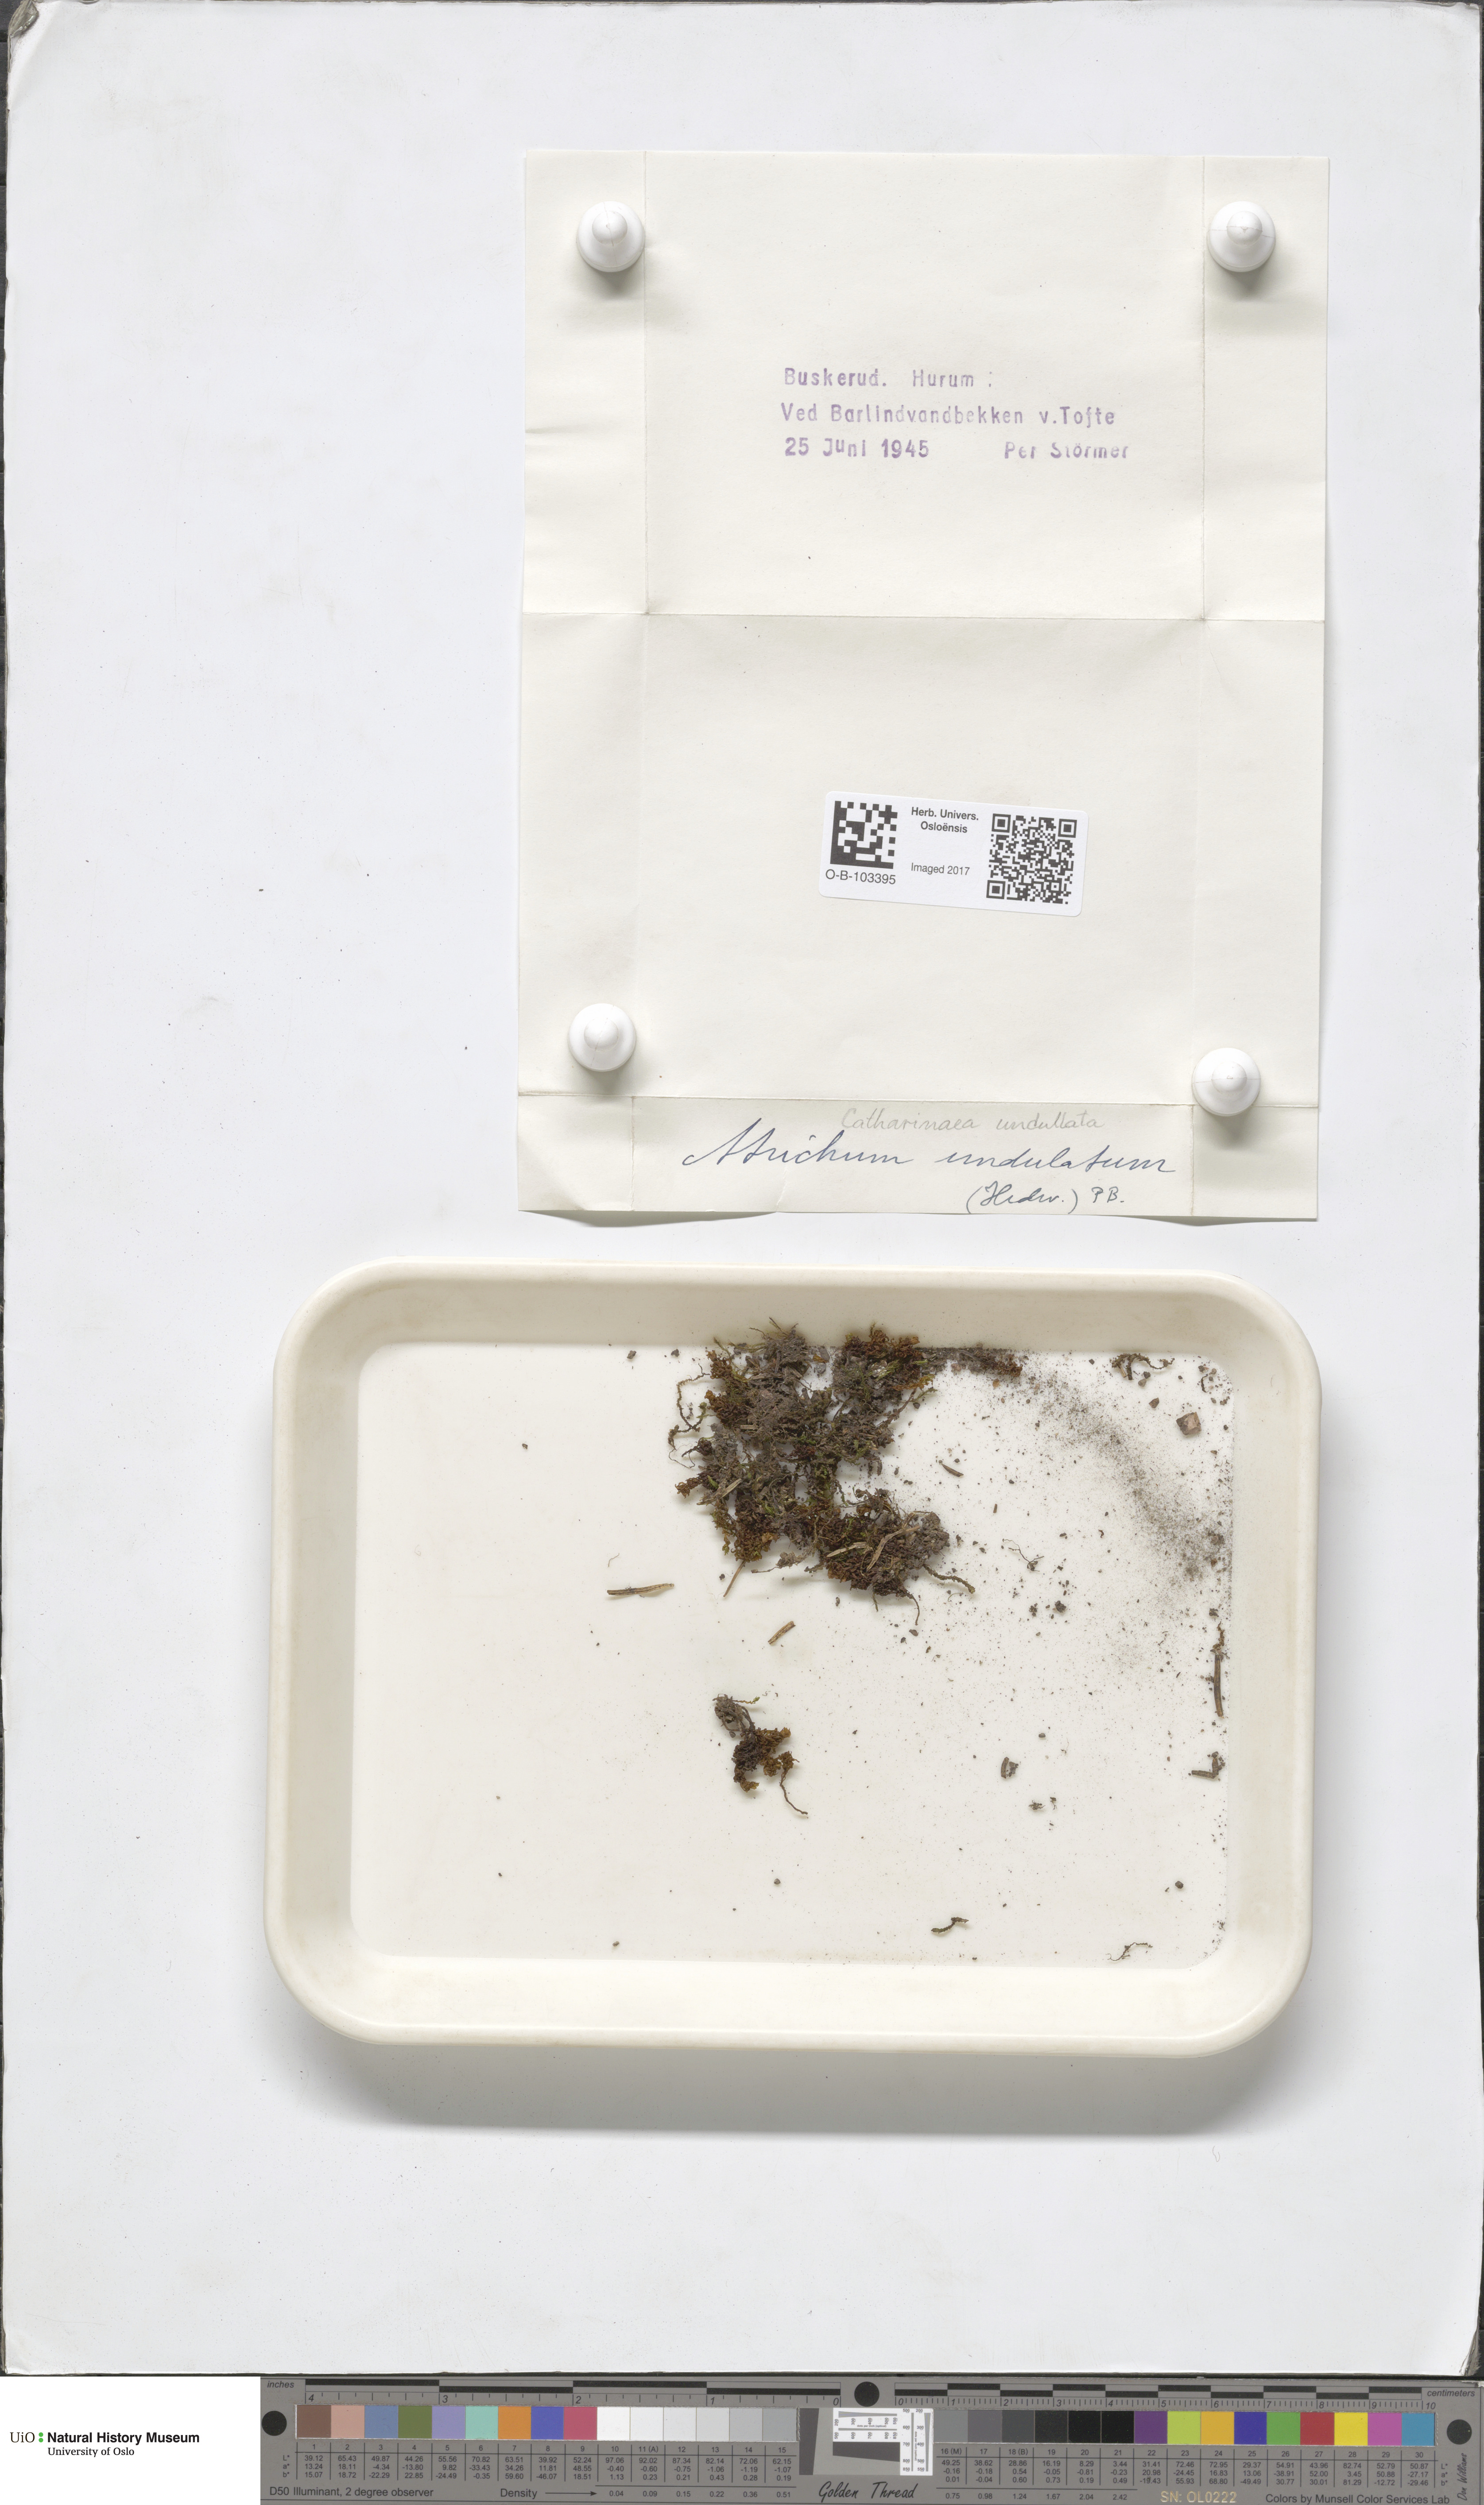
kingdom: Plantae
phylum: Bryophyta
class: Polytrichopsida
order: Polytrichales
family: Polytrichaceae
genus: Atrichum
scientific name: Atrichum undulatum
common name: Common smoothcap
